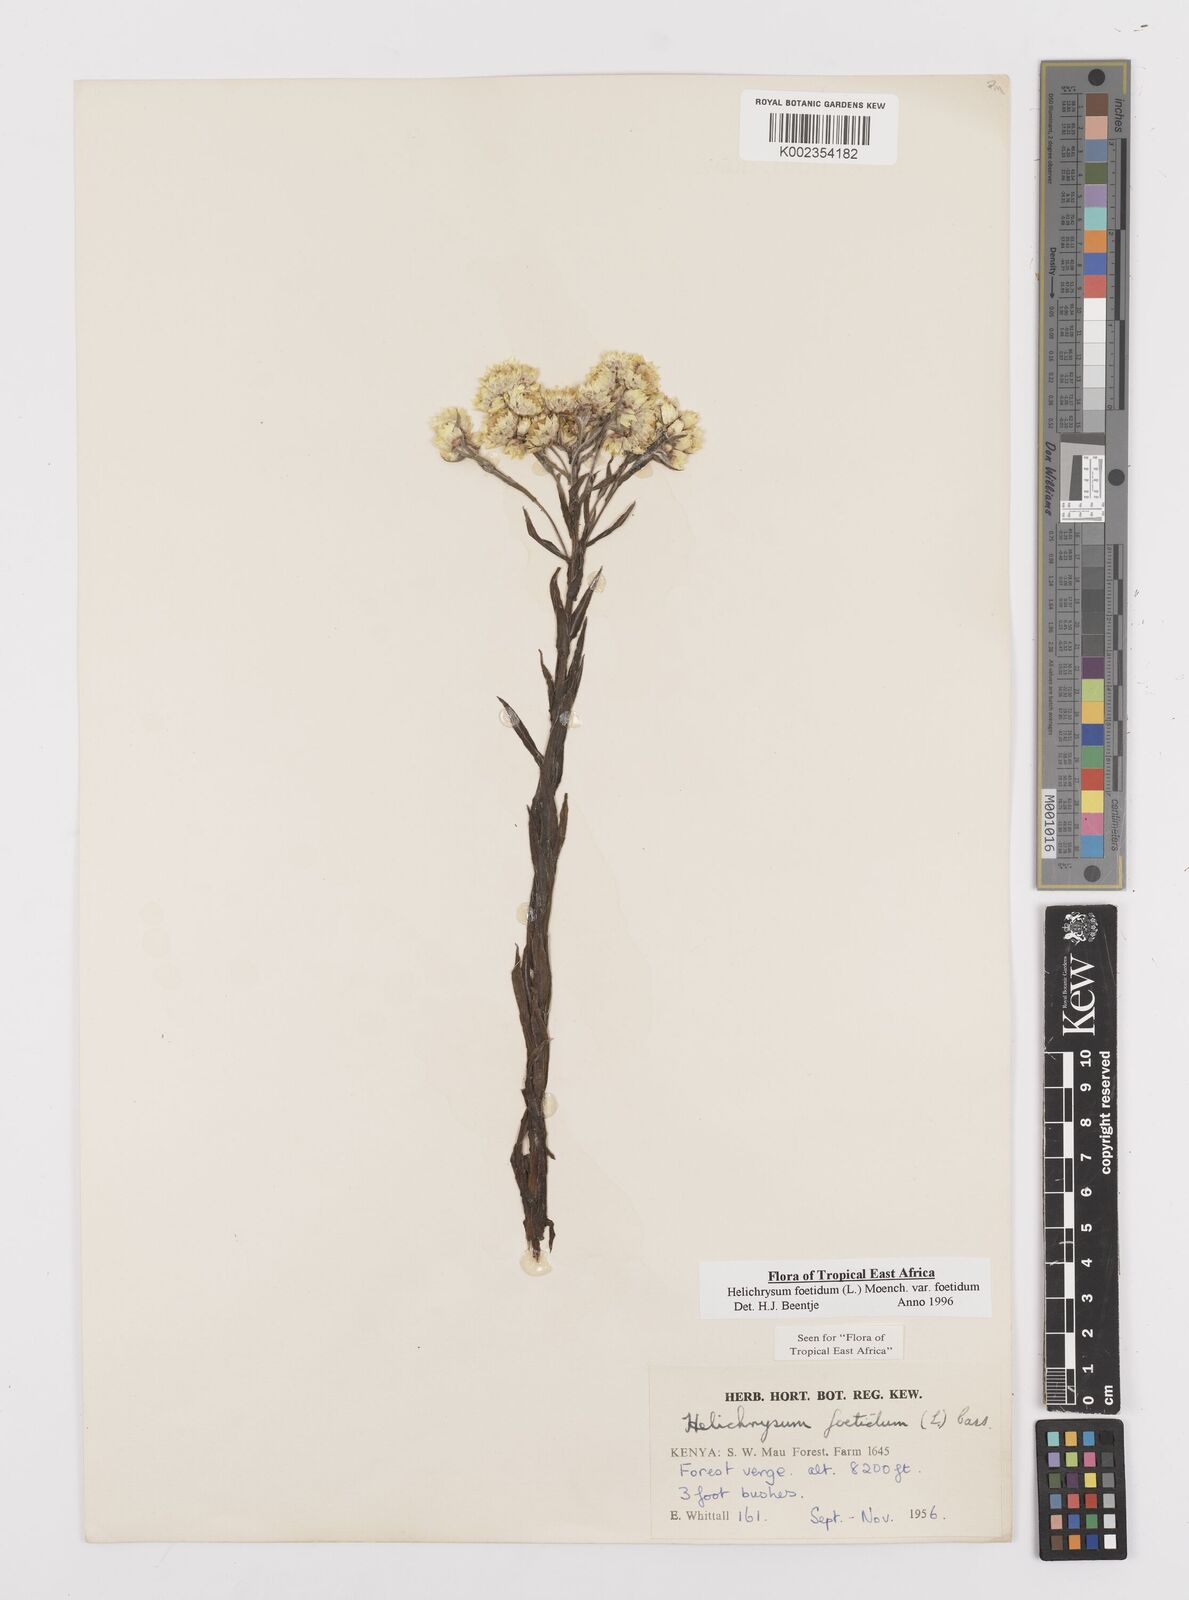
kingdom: Plantae
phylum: Tracheophyta
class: Magnoliopsida
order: Asterales
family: Asteraceae
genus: Helichrysum
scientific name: Helichrysum foetidum
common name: Stinking everlasting
